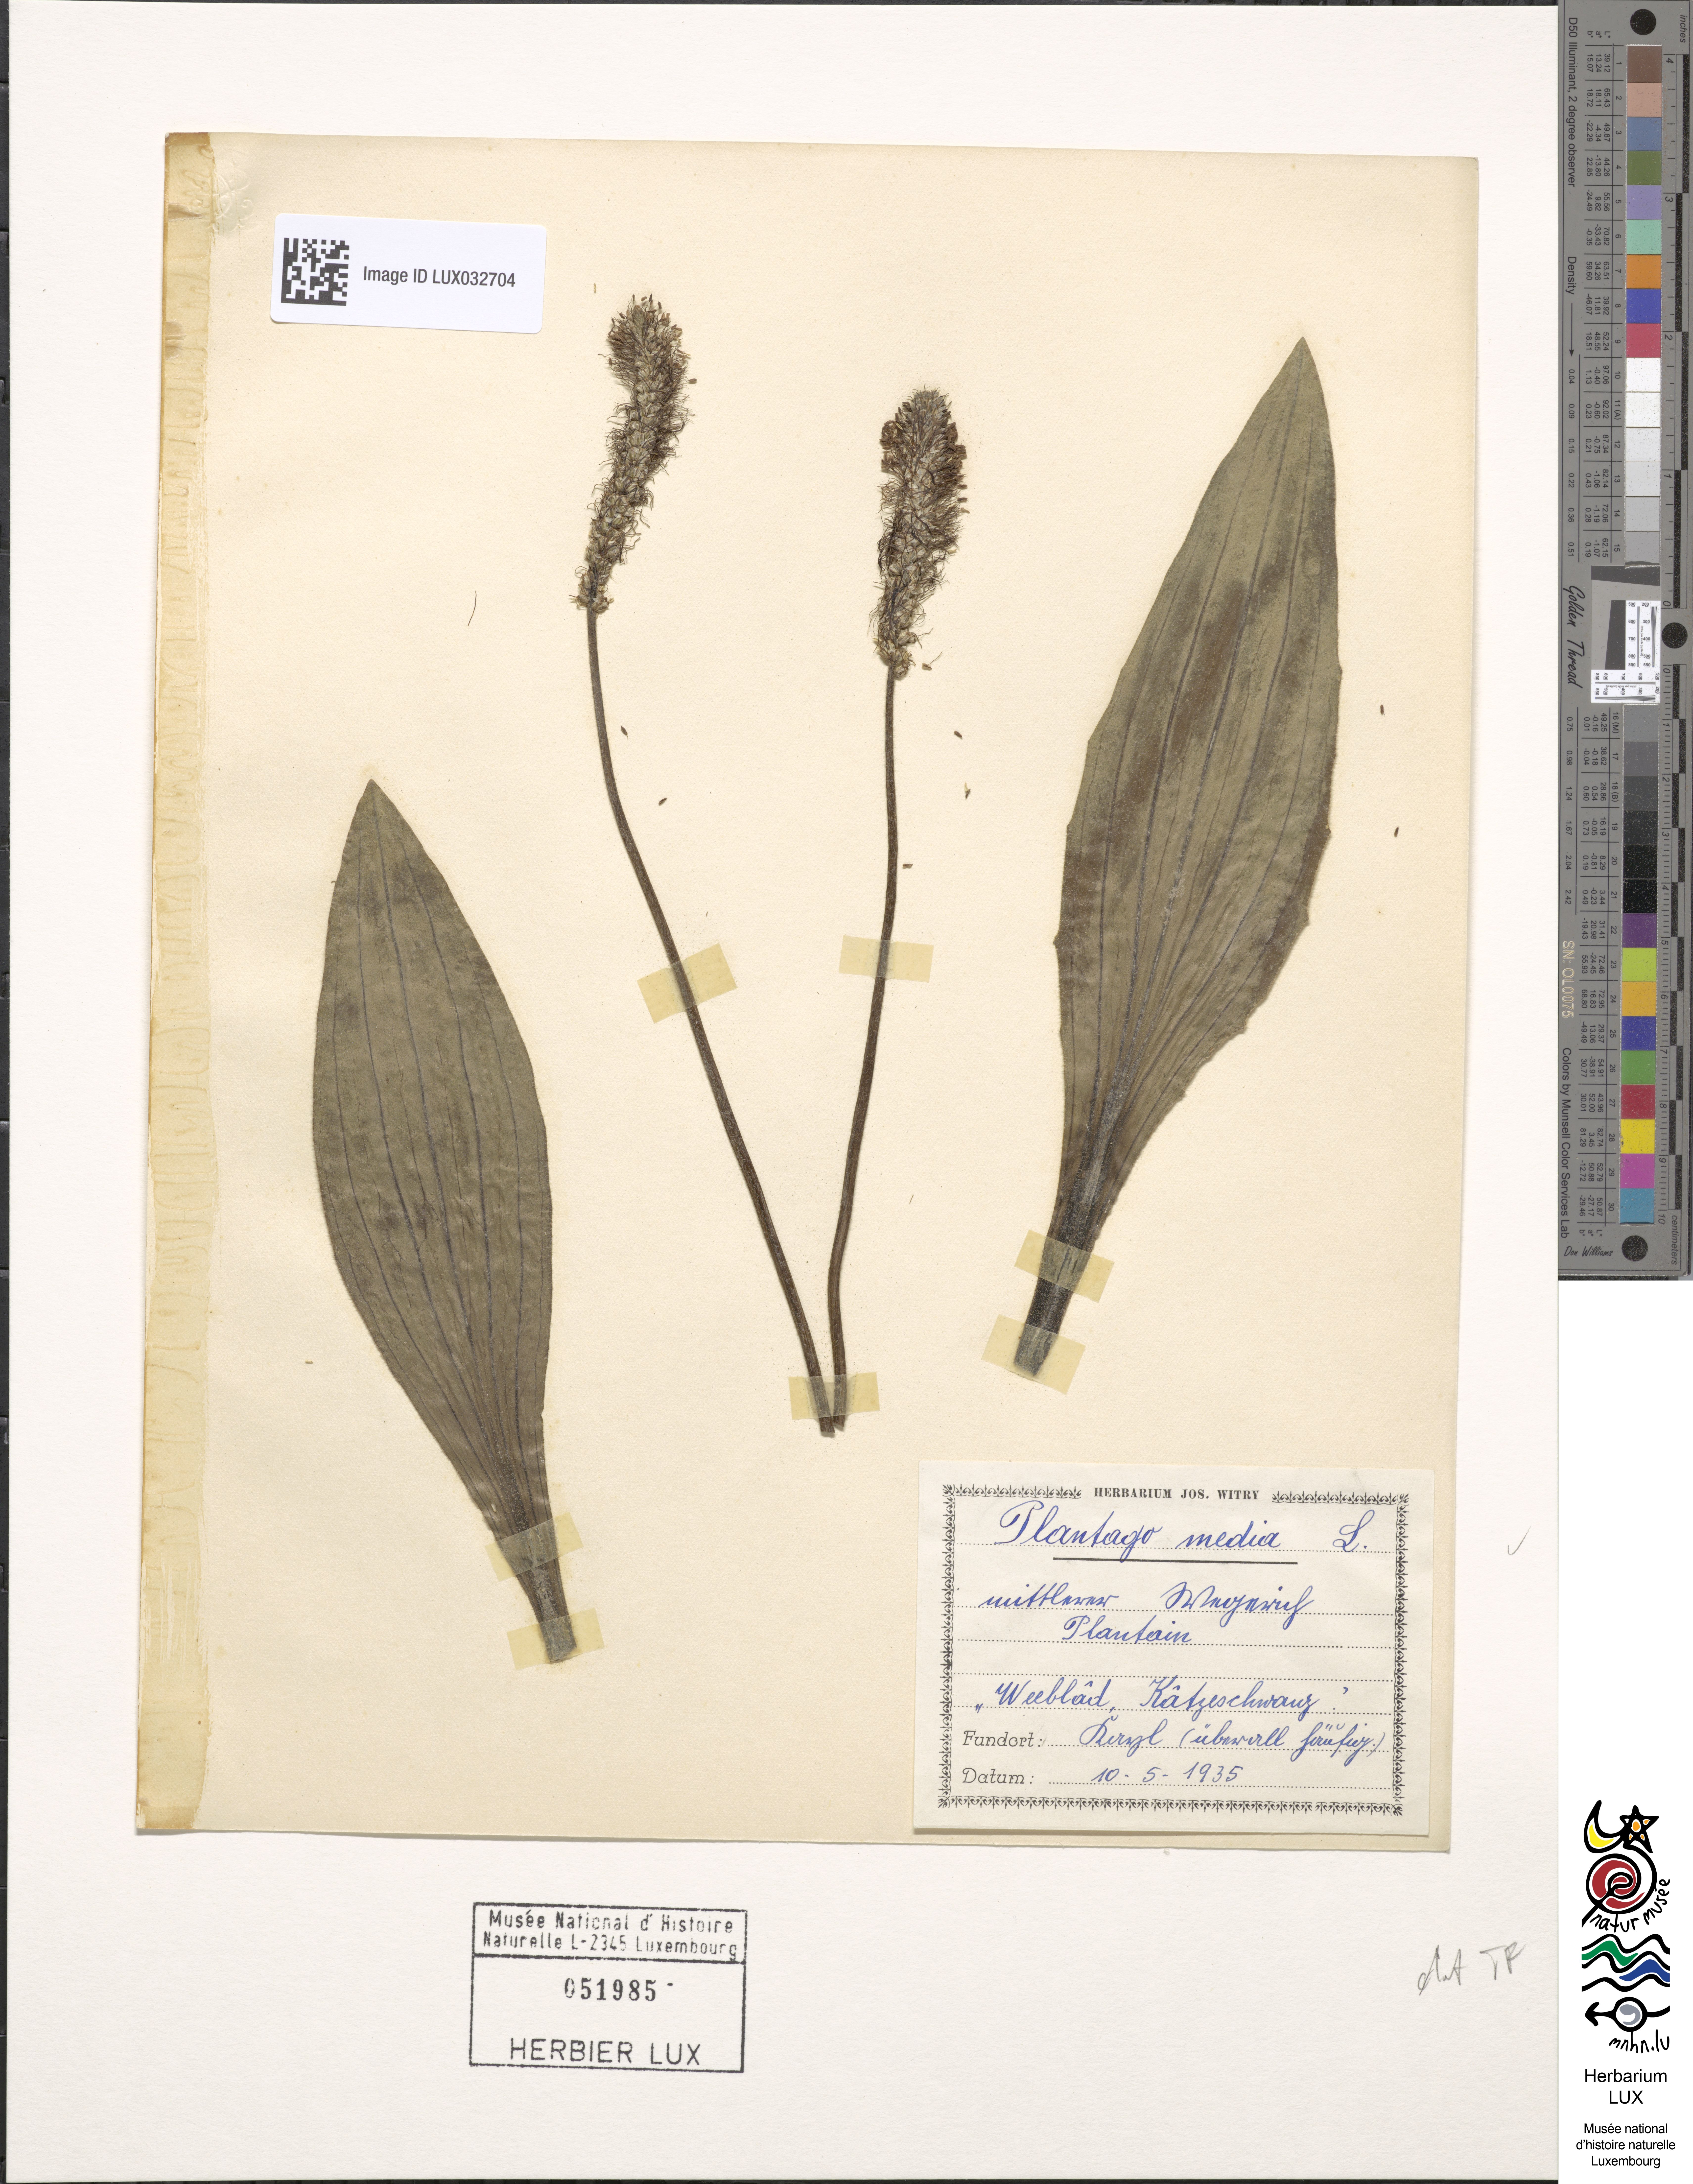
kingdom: Plantae
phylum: Tracheophyta
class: Magnoliopsida
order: Lamiales
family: Plantaginaceae
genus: Plantago
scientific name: Plantago media
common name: Hoary plantain
